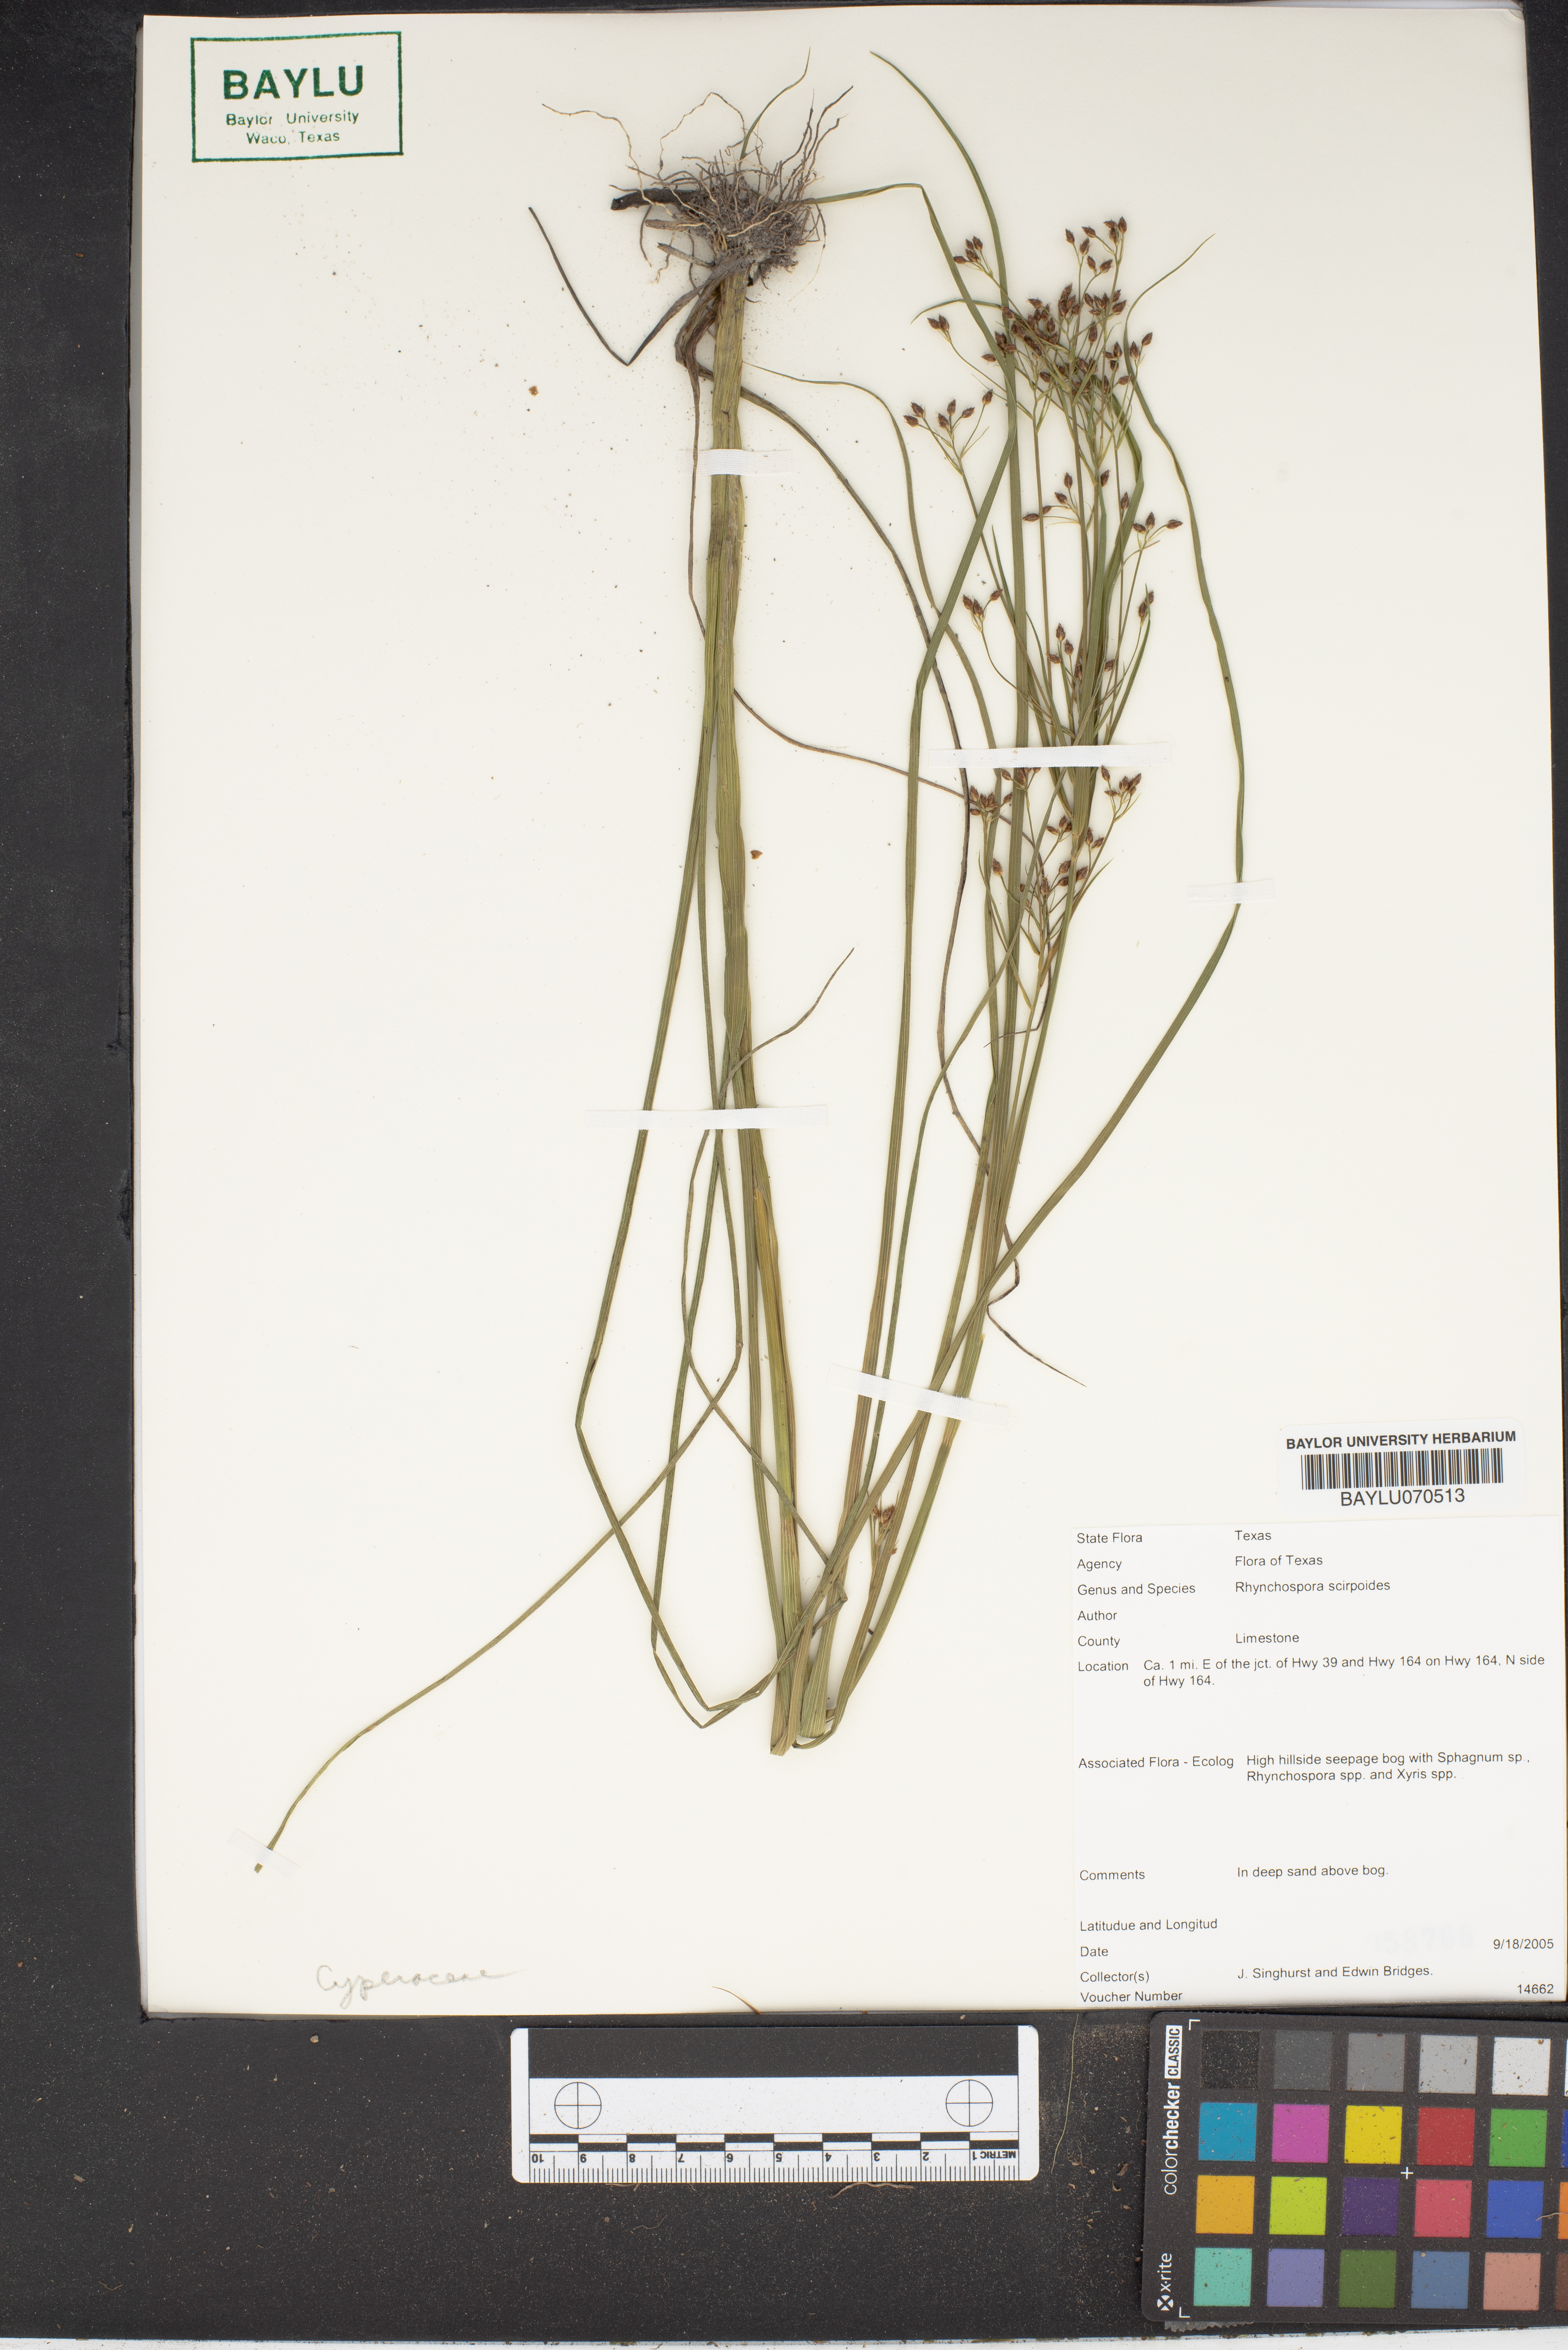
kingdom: Plantae
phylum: Tracheophyta
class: Liliopsida
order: Poales
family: Cyperaceae
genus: Rhynchospora
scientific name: Rhynchospora scirpoides
